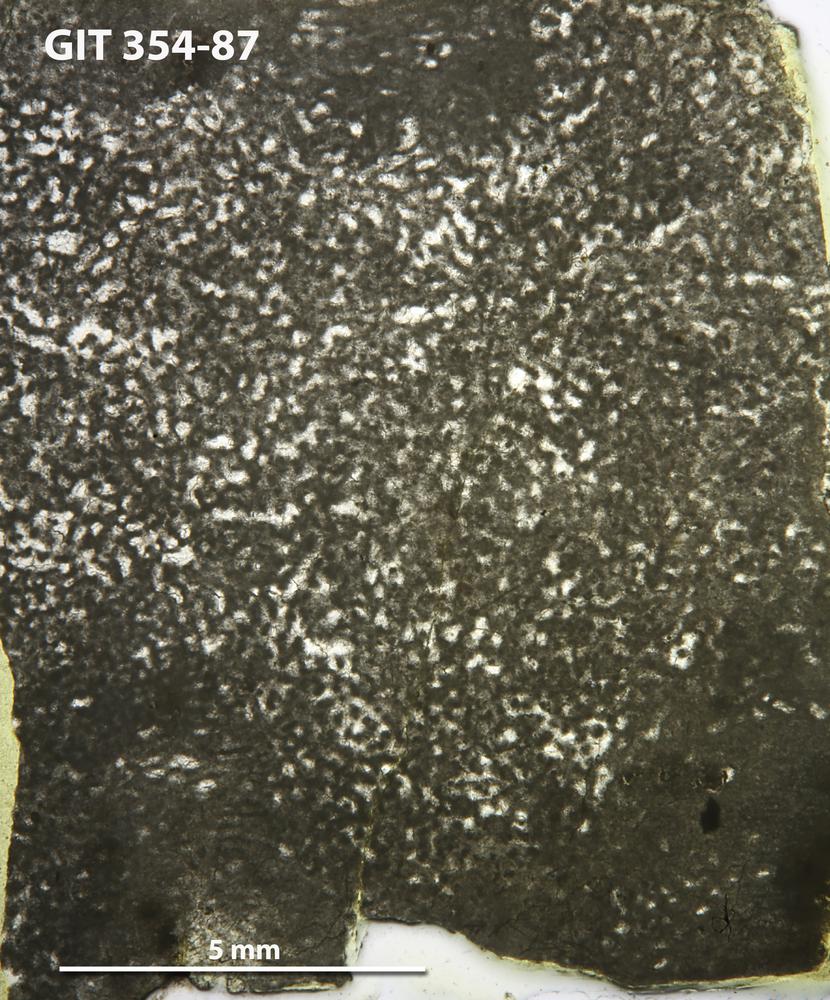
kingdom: Animalia
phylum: Porifera
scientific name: Porifera
